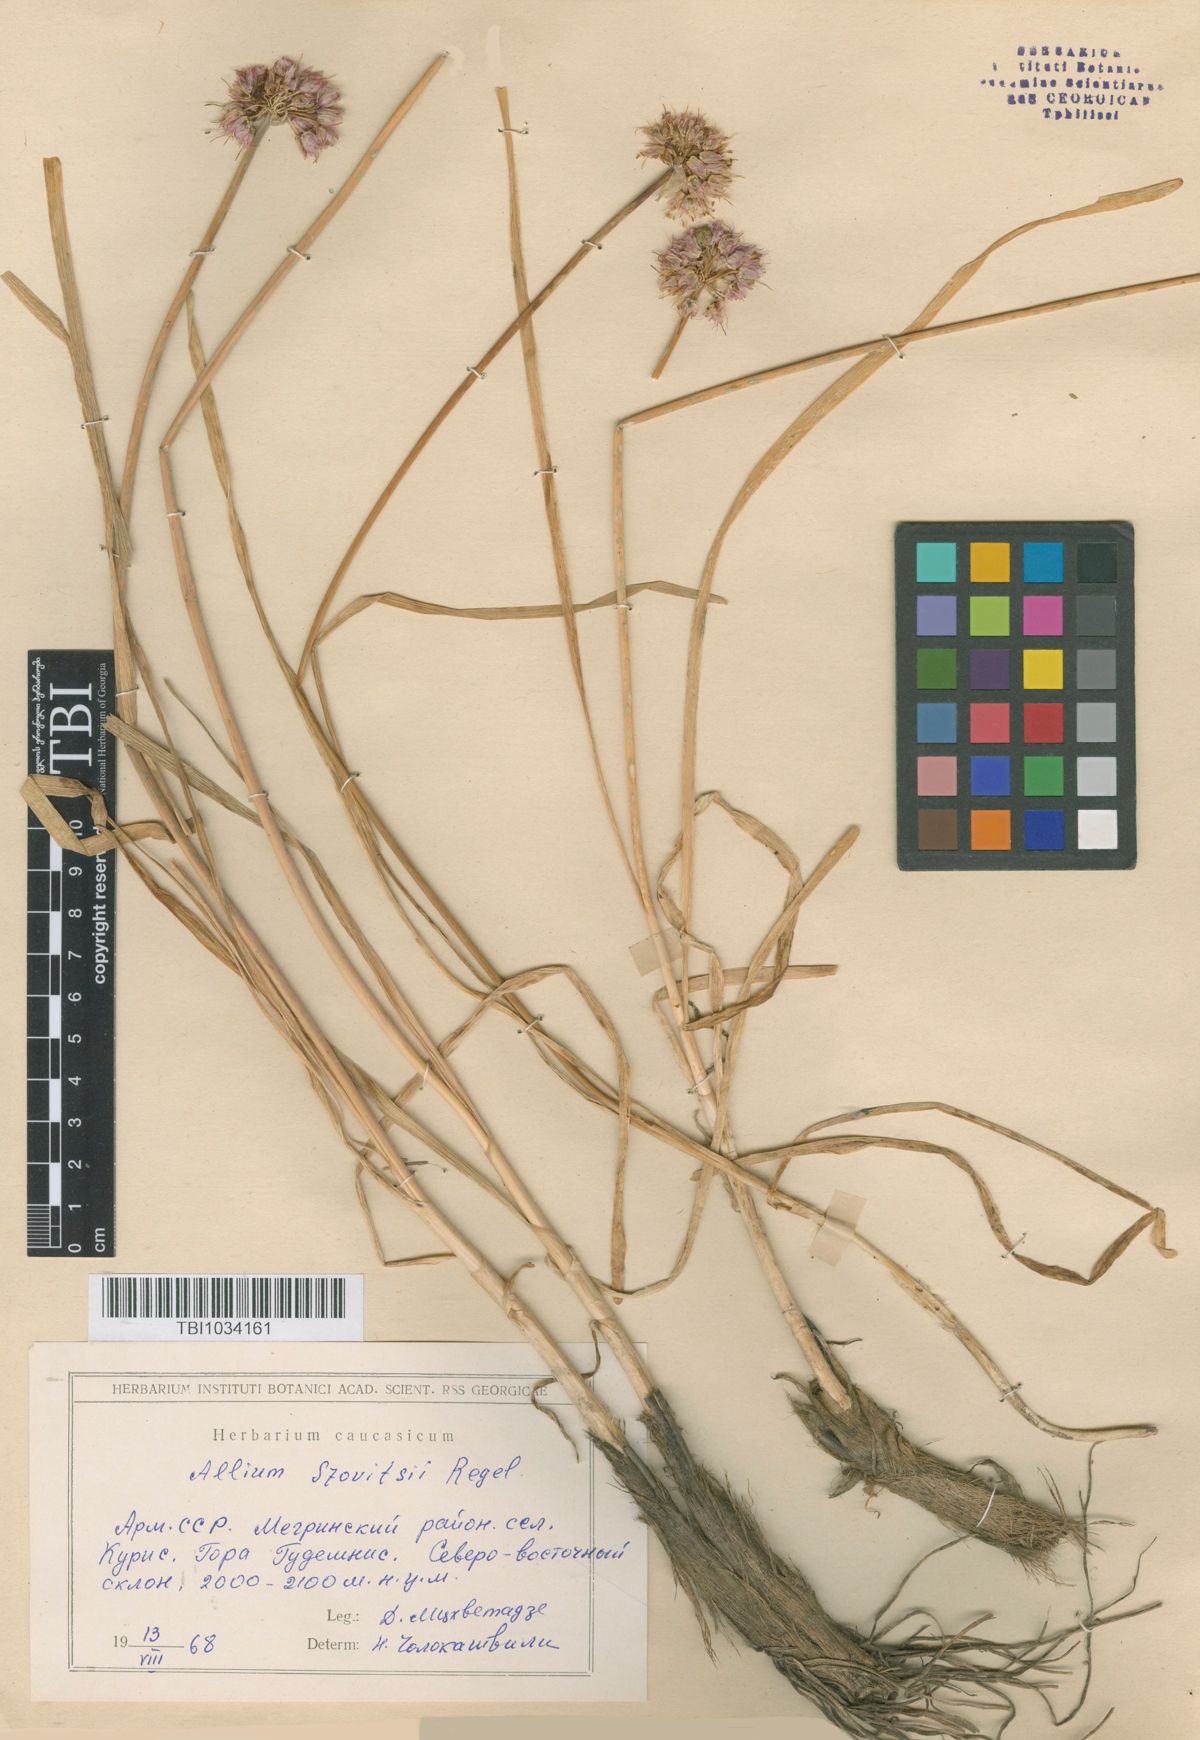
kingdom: Plantae
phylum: Tracheophyta
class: Liliopsida
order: Asparagales
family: Amaryllidaceae
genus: Allium
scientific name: Allium szovitsii
